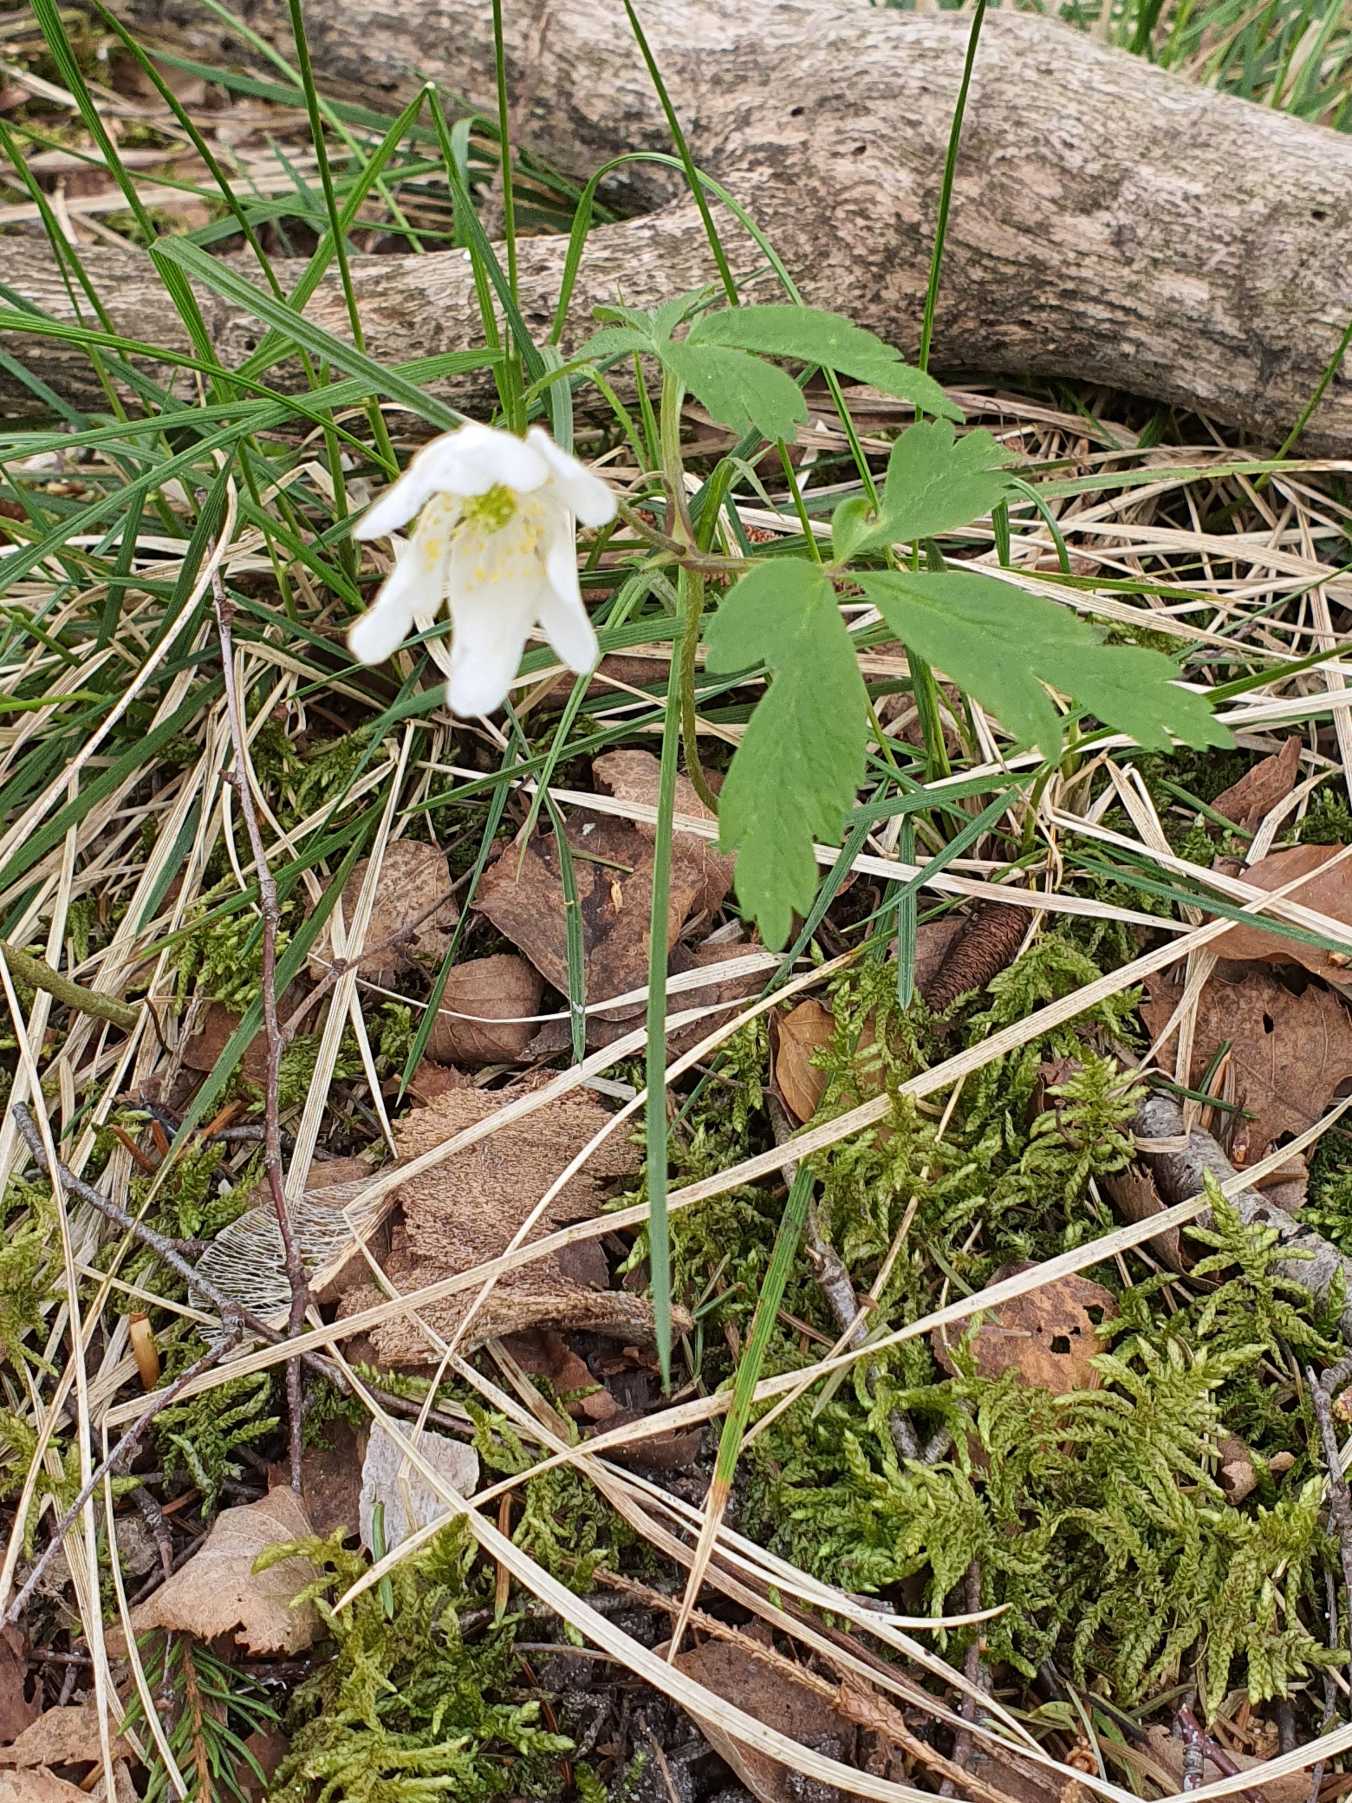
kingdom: Plantae
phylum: Tracheophyta
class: Magnoliopsida
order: Ranunculales
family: Ranunculaceae
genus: Anemone
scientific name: Anemone nemorosa
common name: Hvid anemone
